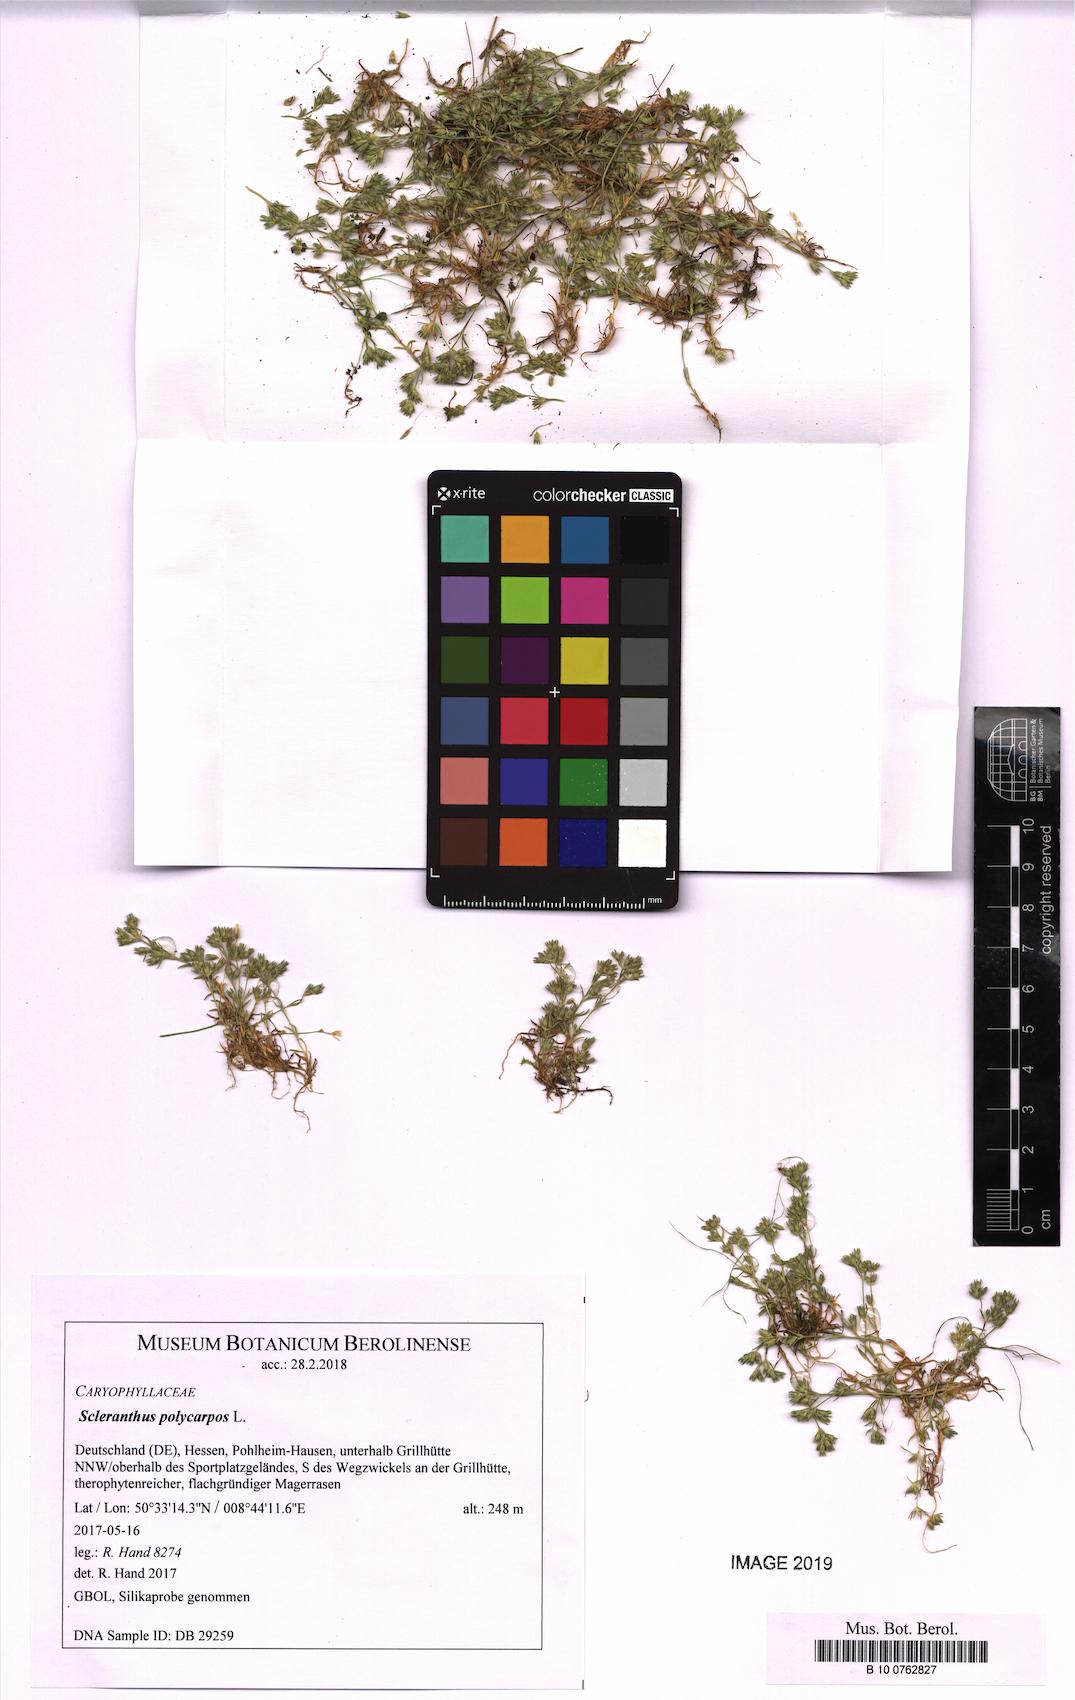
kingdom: Plantae
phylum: Tracheophyta
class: Magnoliopsida
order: Caryophyllales
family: Caryophyllaceae
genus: Scleranthus
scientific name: Scleranthus annuus
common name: Annual knawel
